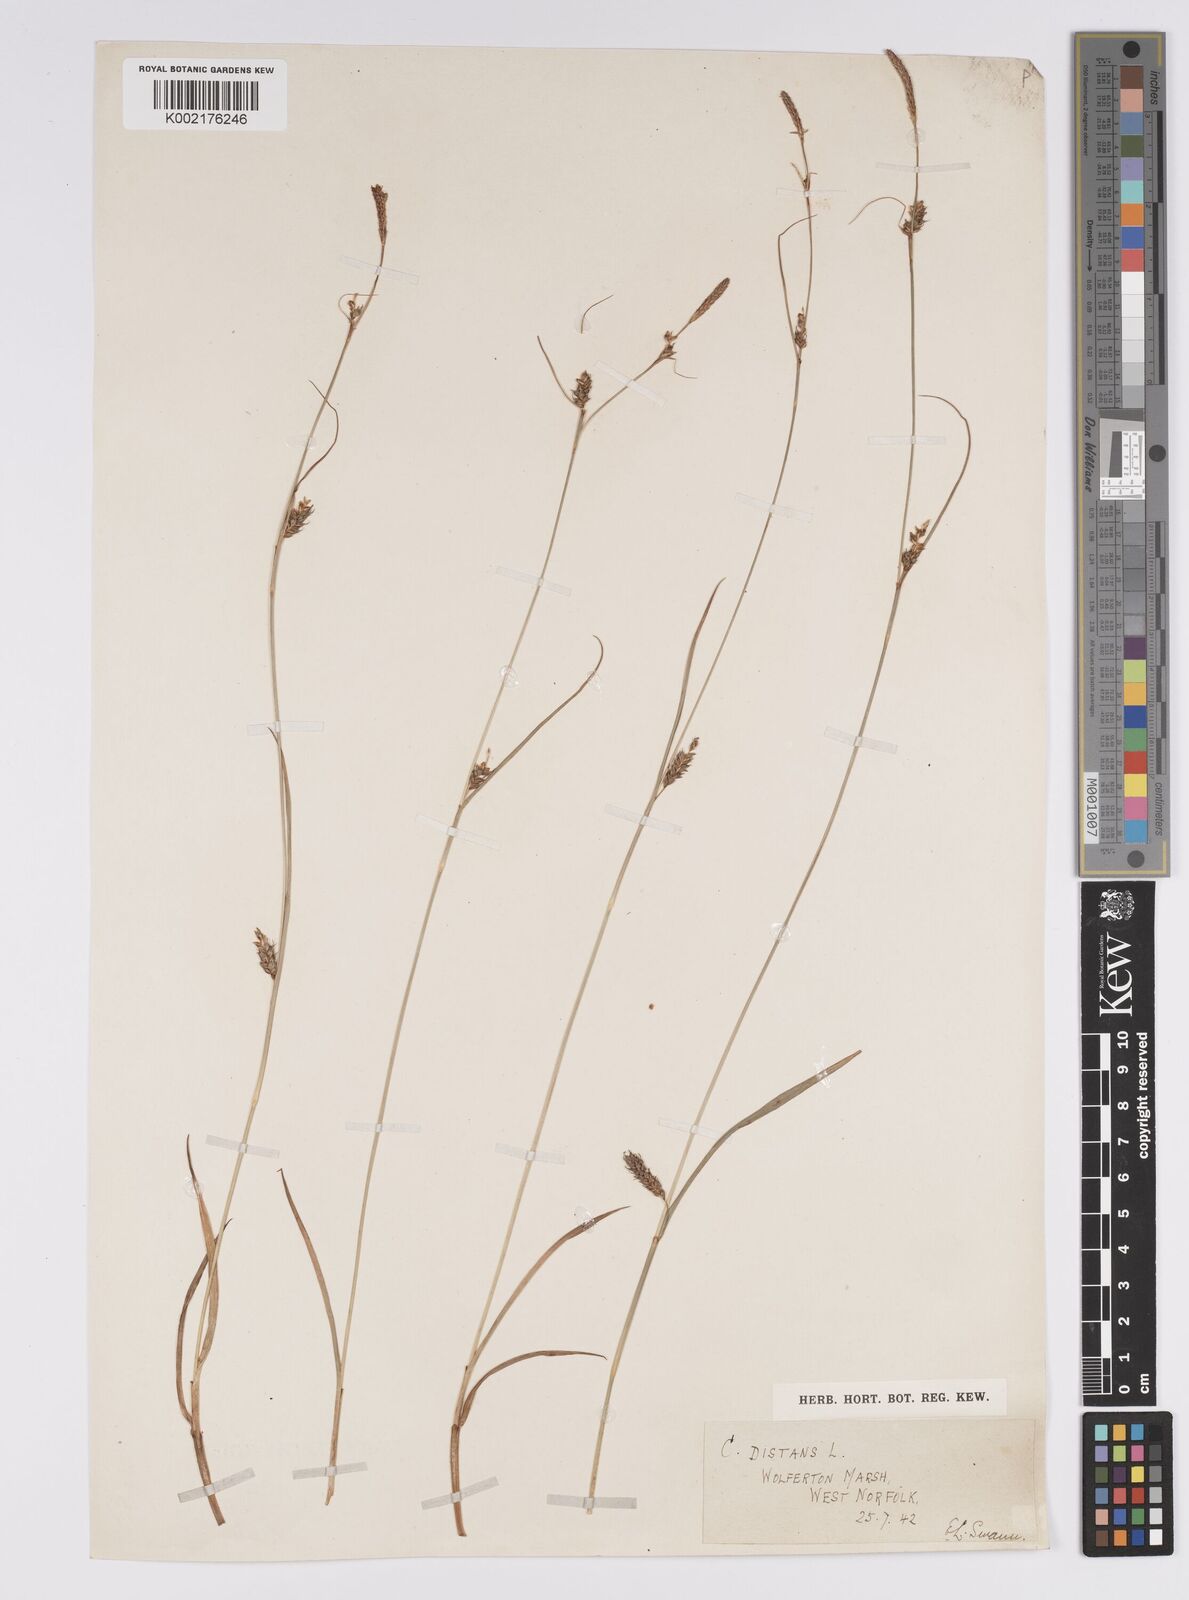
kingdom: Plantae
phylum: Tracheophyta
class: Liliopsida
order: Poales
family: Cyperaceae
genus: Carex
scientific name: Carex distans
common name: Distant sedge
